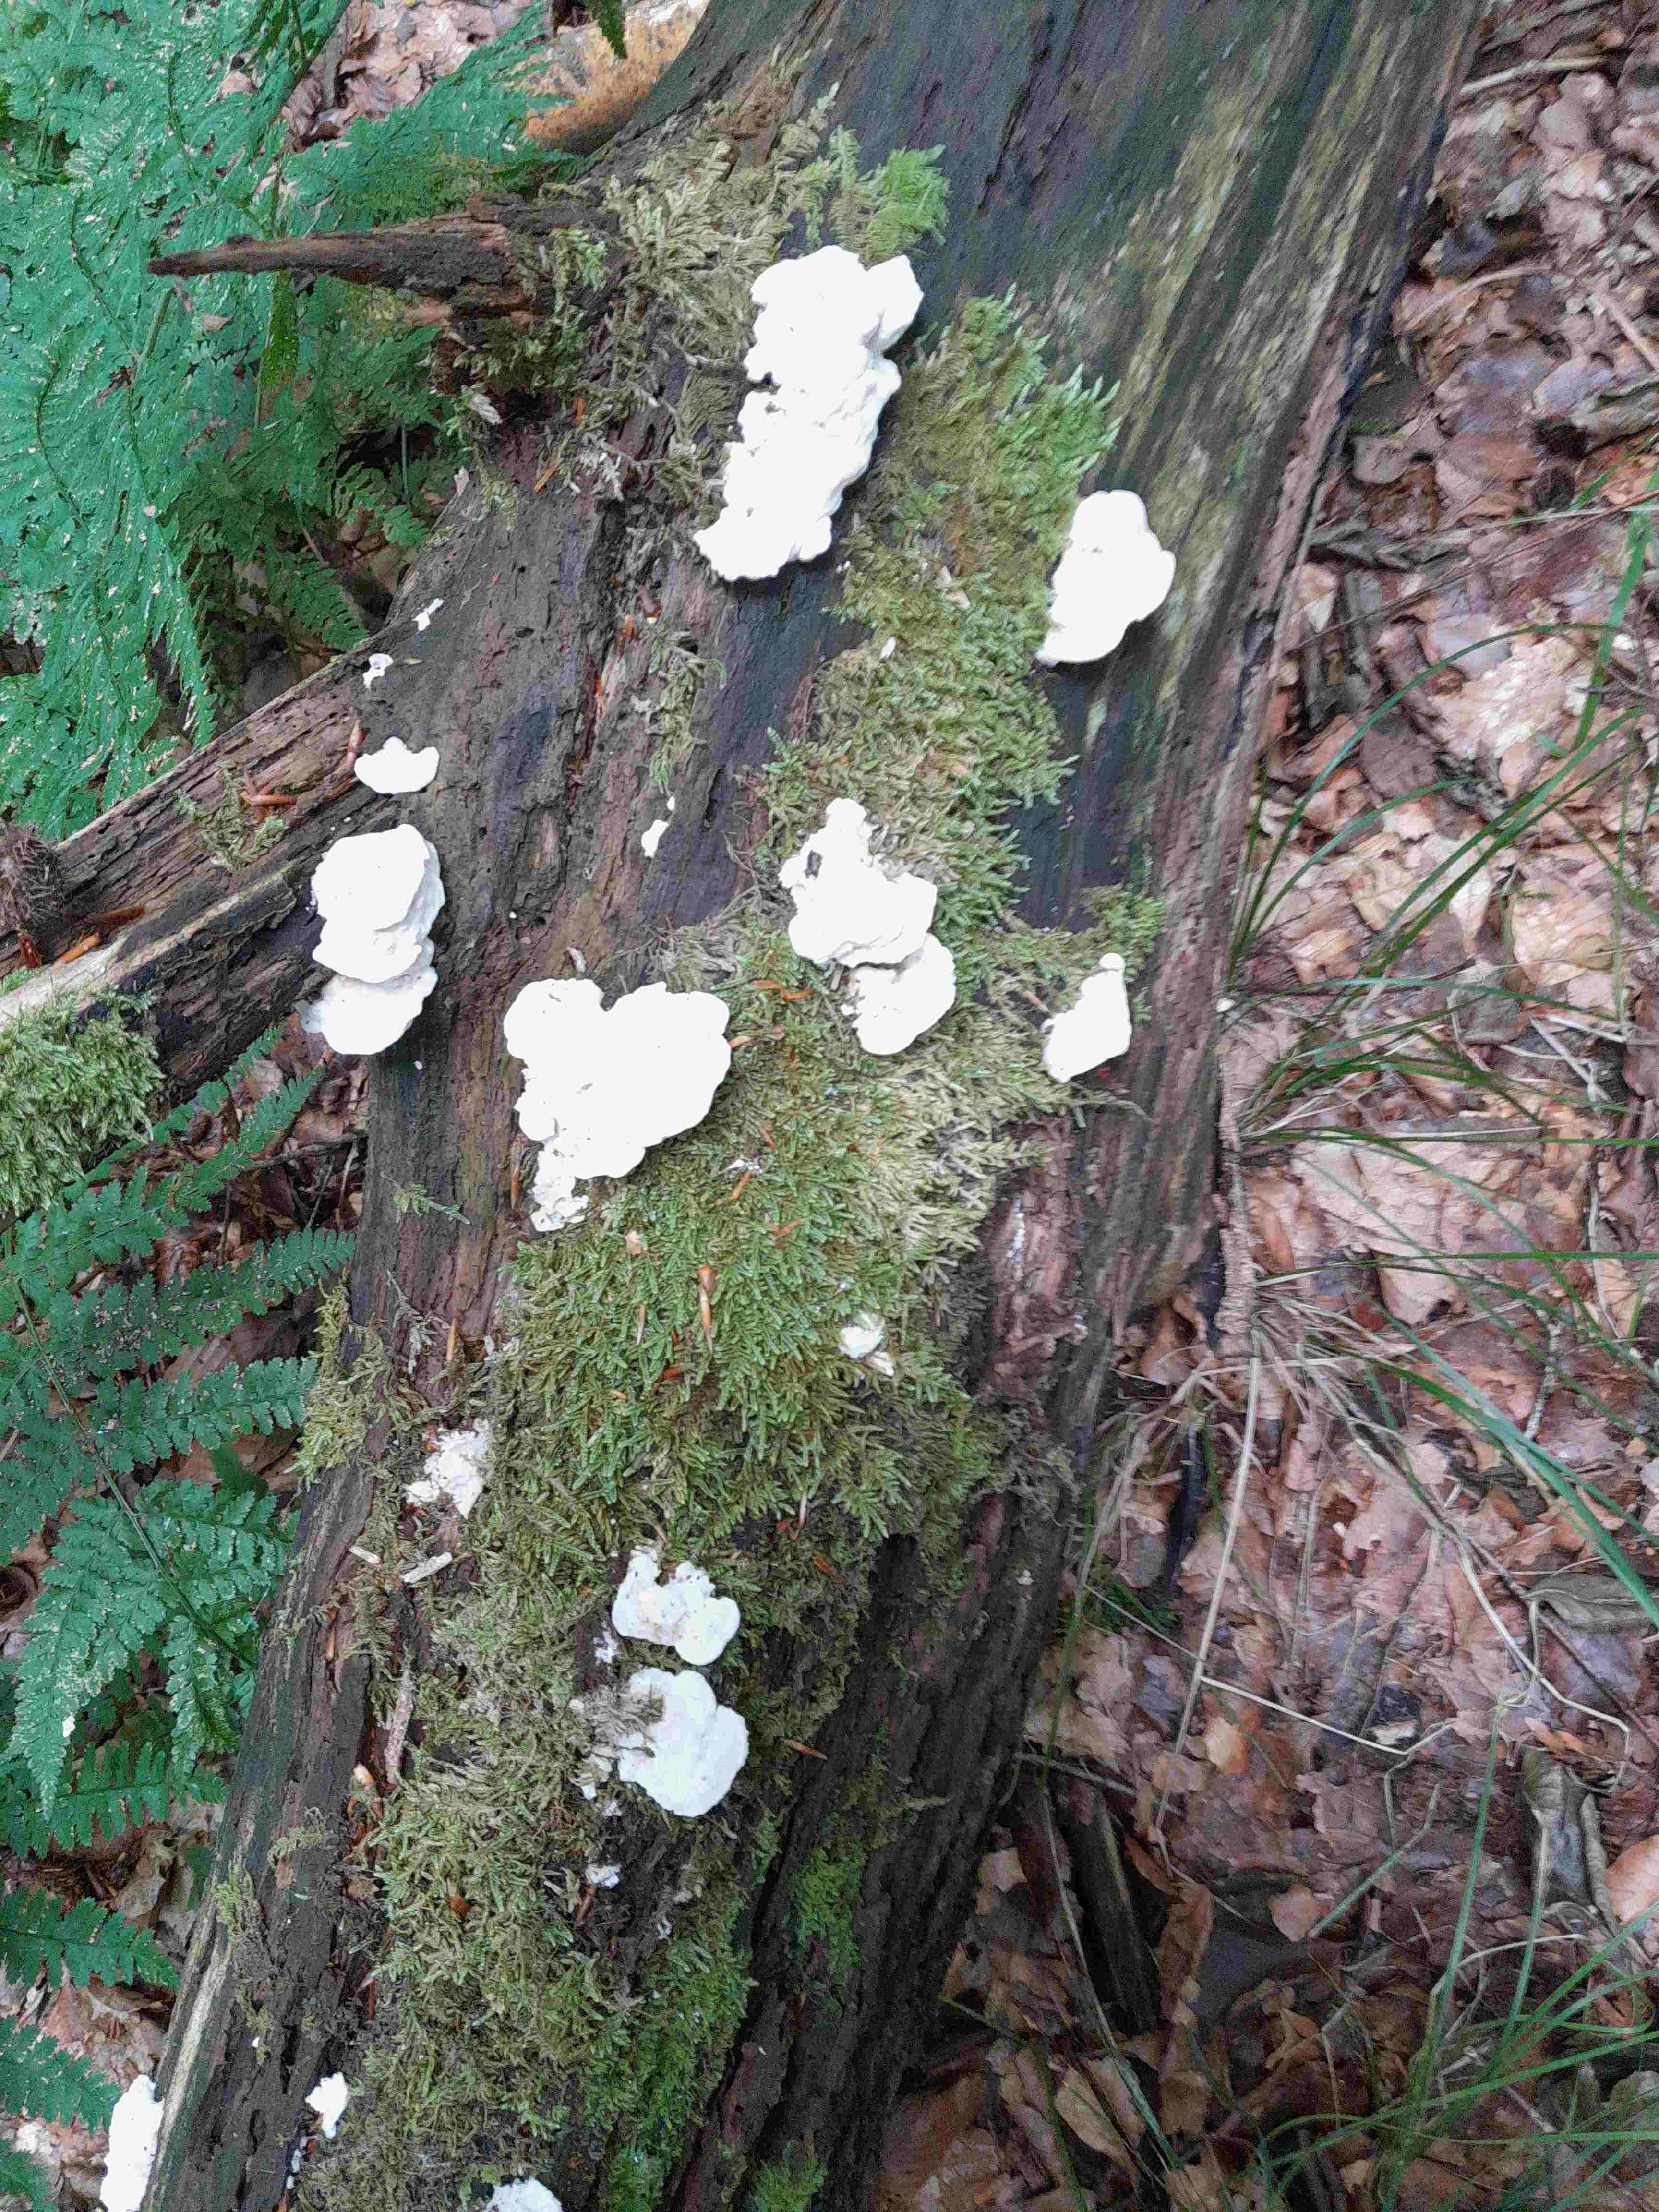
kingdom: Fungi
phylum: Basidiomycota
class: Agaricomycetes
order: Polyporales
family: Incrustoporiaceae
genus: Tyromyces
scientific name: Tyromyces lacteus
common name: mælkehvid kødporesvamp
